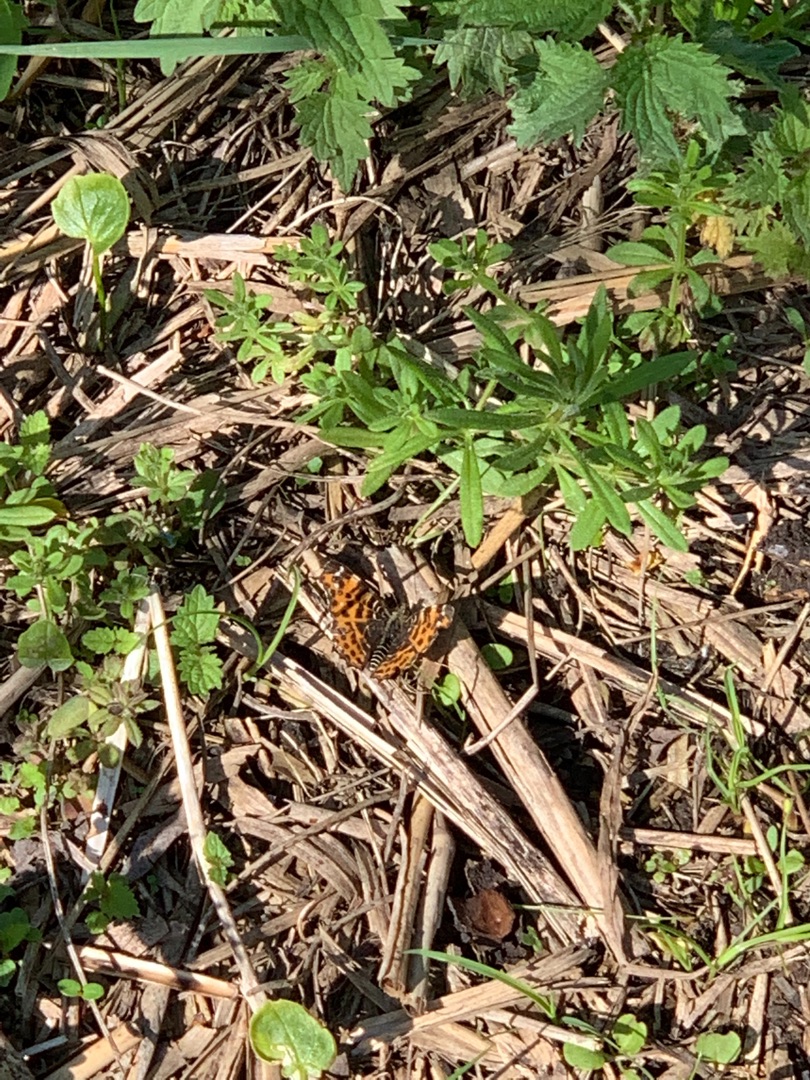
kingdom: Animalia
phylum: Arthropoda
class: Insecta
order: Lepidoptera
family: Nymphalidae
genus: Araschnia
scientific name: Araschnia levana
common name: Nældesommerfugl
